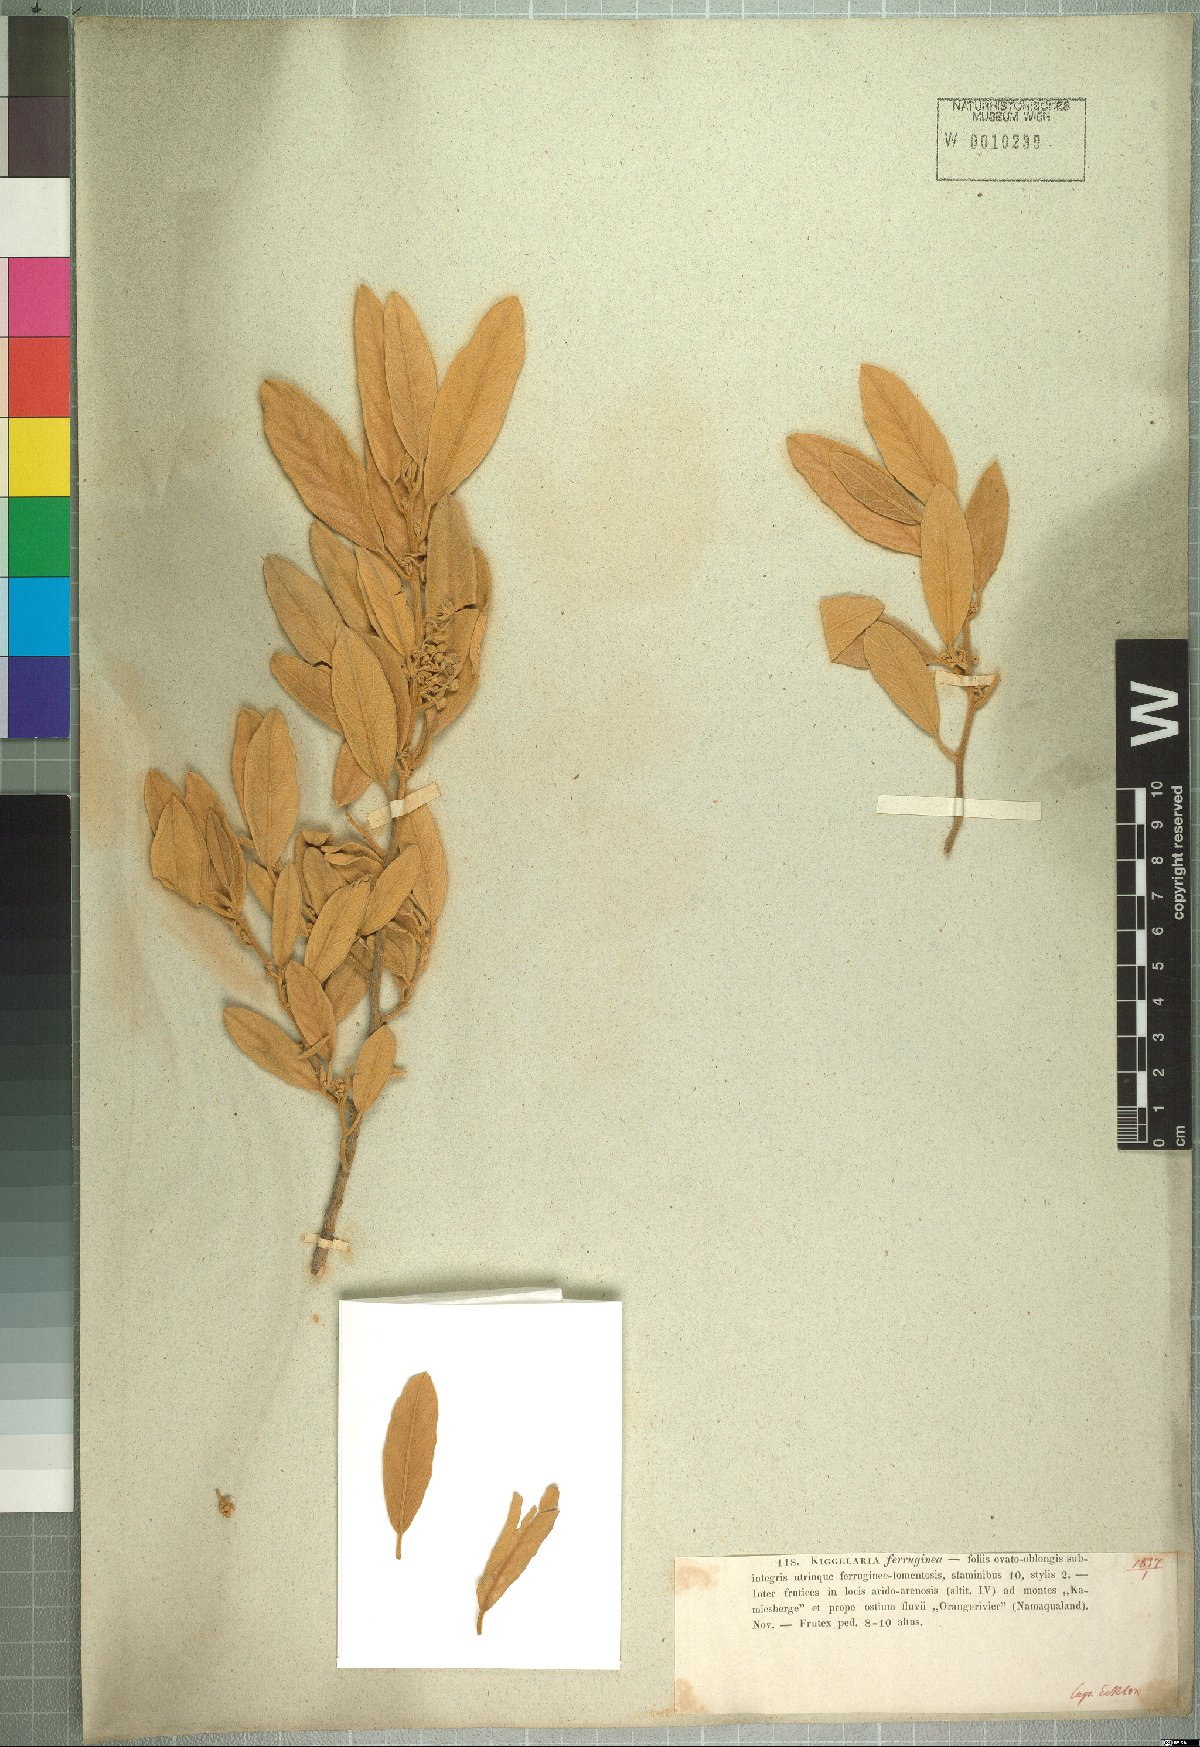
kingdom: Plantae
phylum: Tracheophyta
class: Magnoliopsida
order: Malpighiales
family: Achariaceae
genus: Kiggelaria
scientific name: Kiggelaria africana
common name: Wild peach
